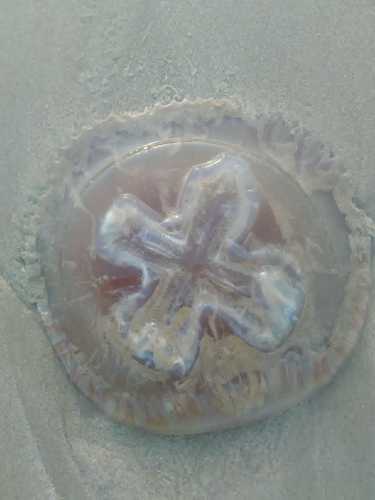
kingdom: Animalia
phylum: Cnidaria
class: Scyphozoa
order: Rhizostomeae
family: Catostylidae
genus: Catostylus
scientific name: Catostylus tagi
